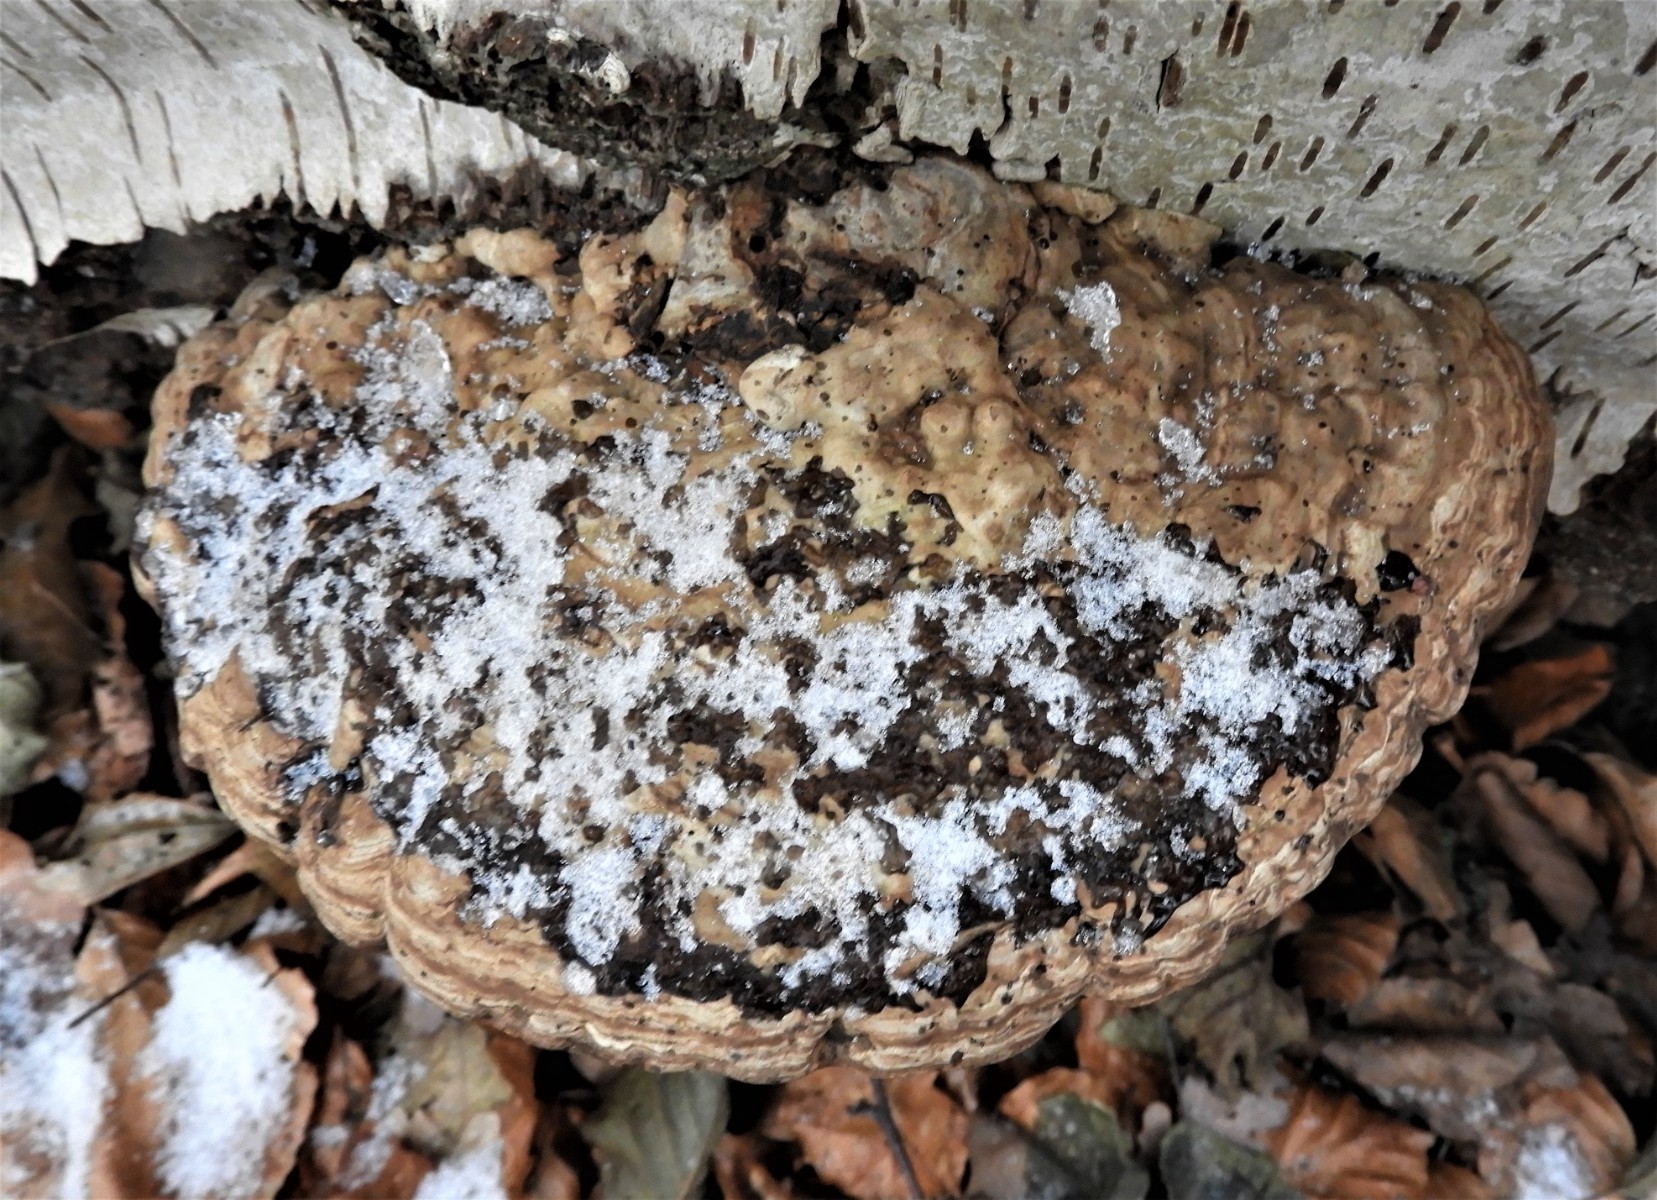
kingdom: Fungi
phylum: Basidiomycota
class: Agaricomycetes
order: Polyporales
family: Polyporaceae
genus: Fomes
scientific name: Fomes fomentarius
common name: tøndersvamp
